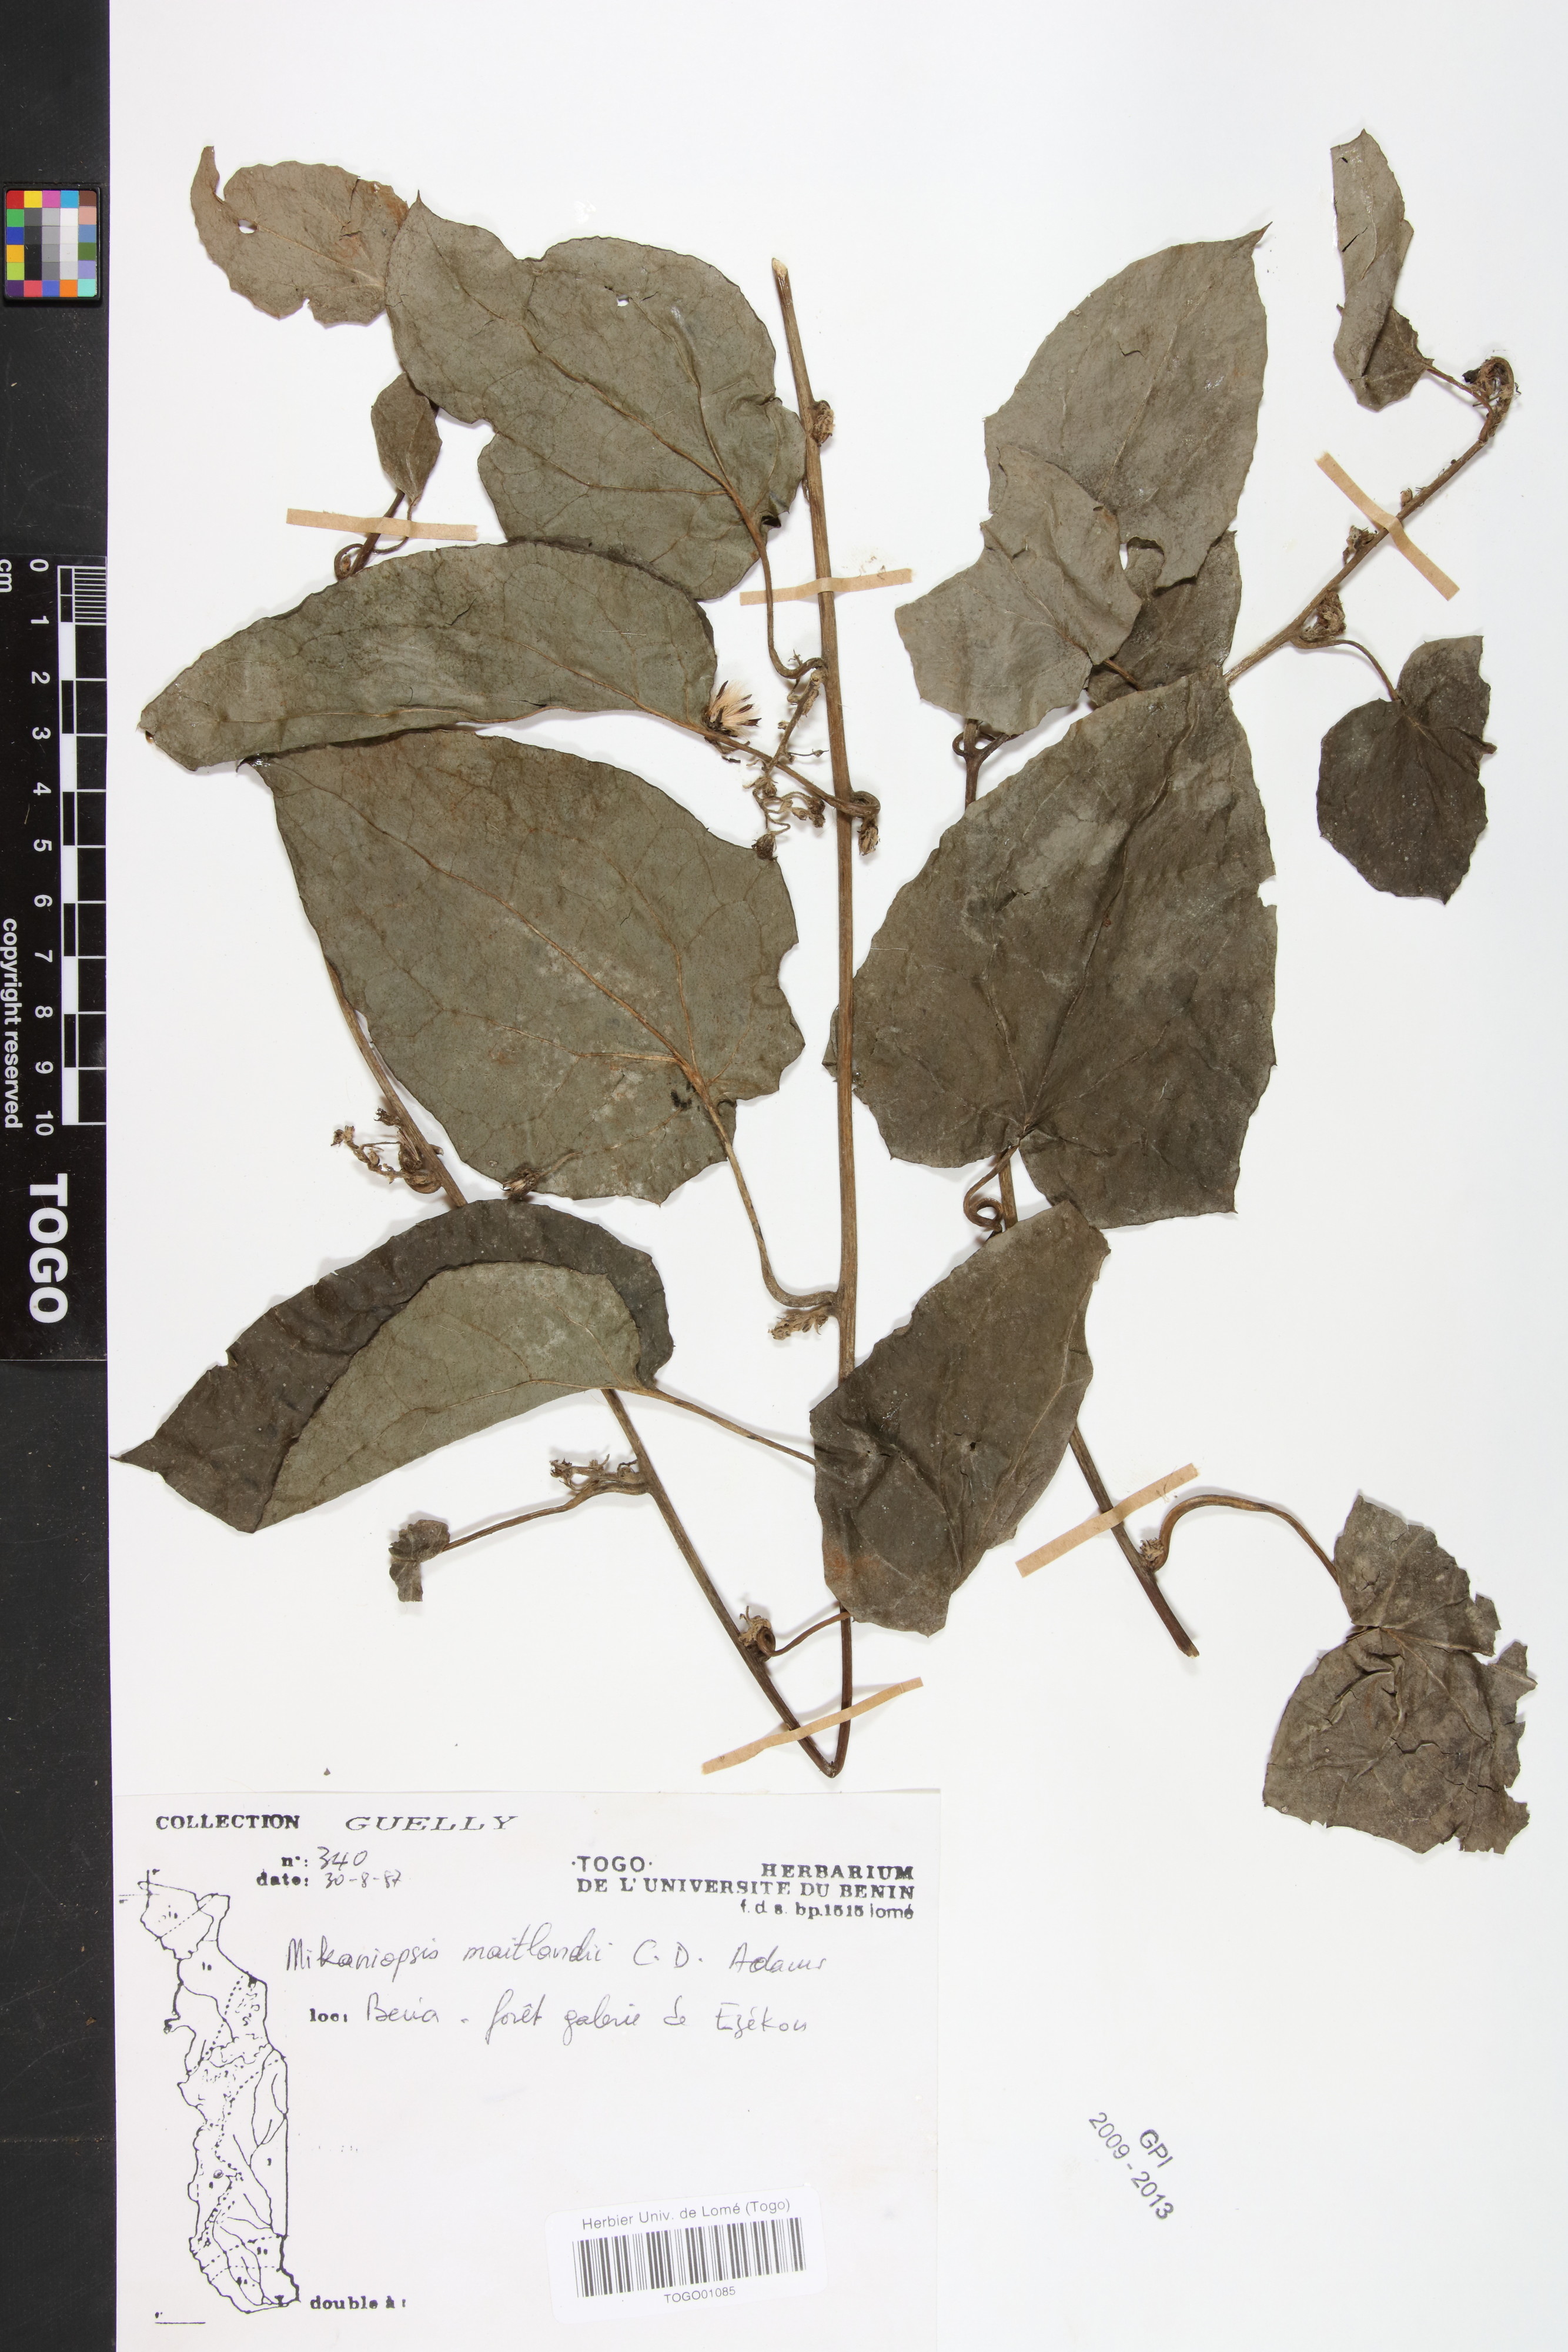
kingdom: Plantae
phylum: Tracheophyta
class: Magnoliopsida
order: Asterales
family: Asteraceae
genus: Mikaniopsis
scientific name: Mikaniopsis maitlandii
